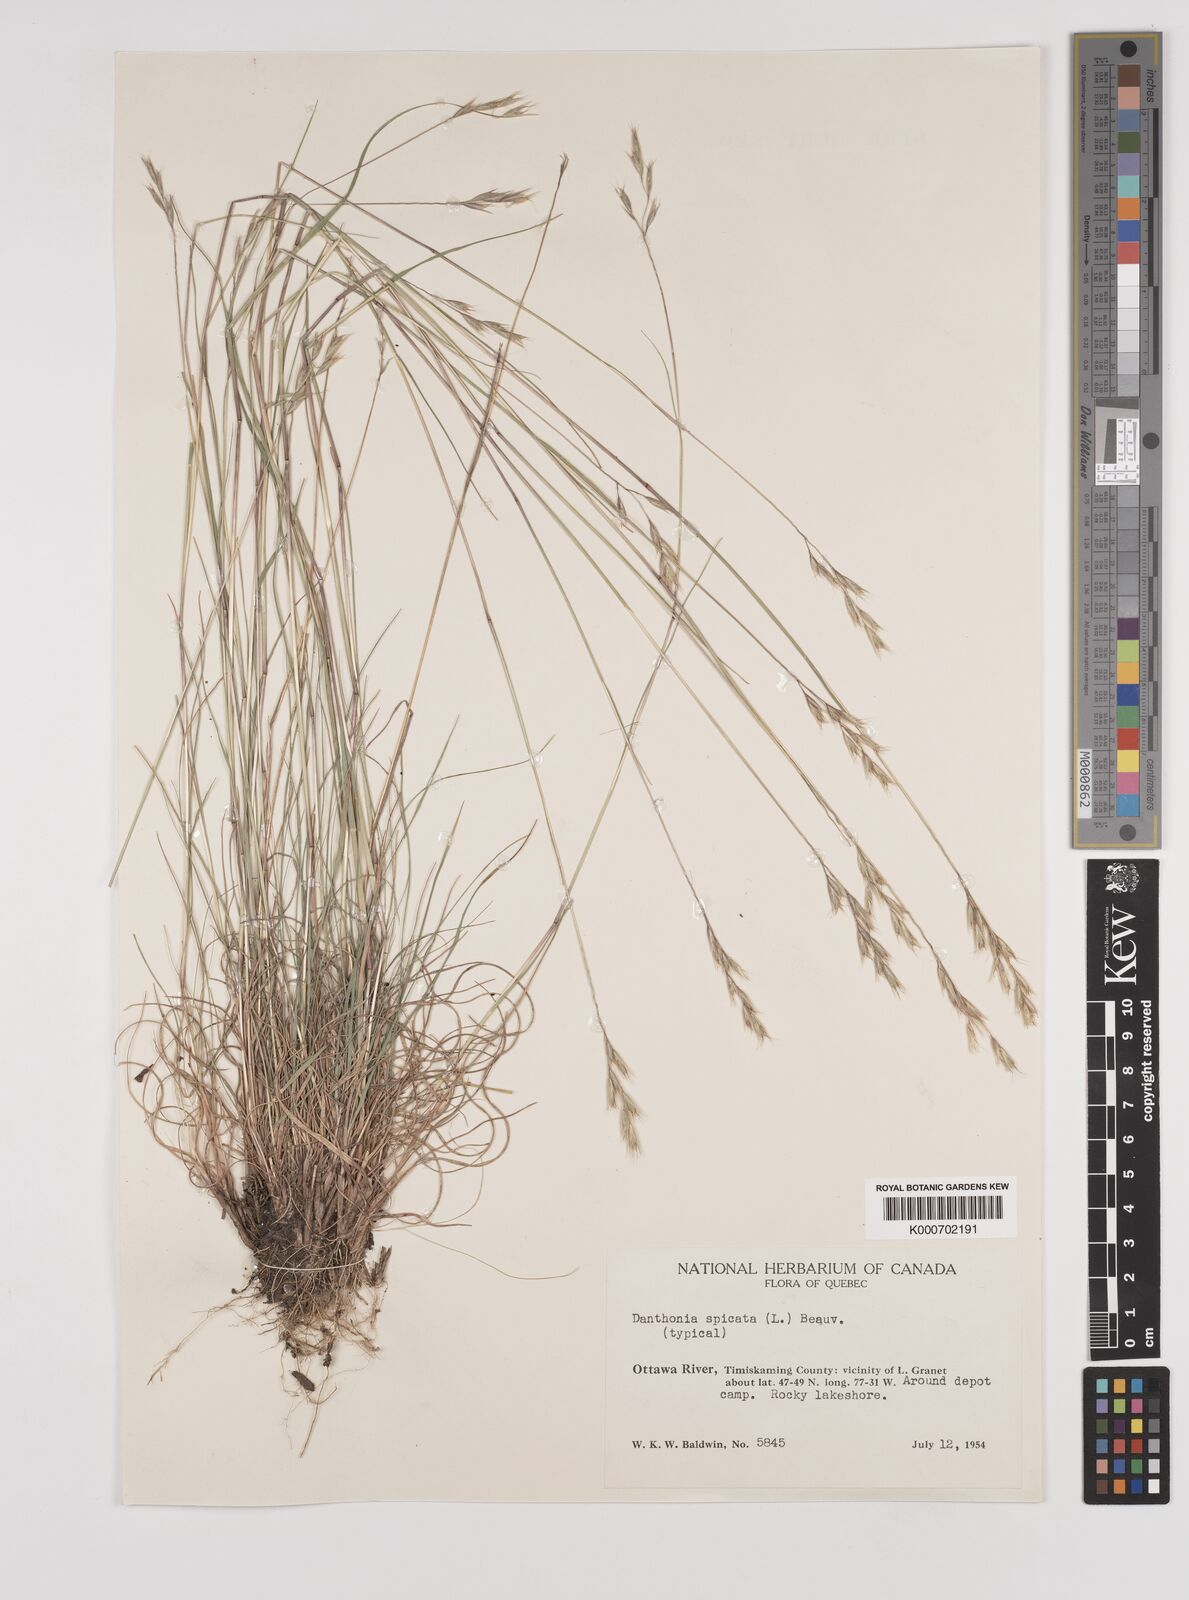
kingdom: Plantae
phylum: Tracheophyta
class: Liliopsida
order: Poales
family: Poaceae
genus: Danthonia
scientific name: Danthonia spicata
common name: Common wild oatgrass
